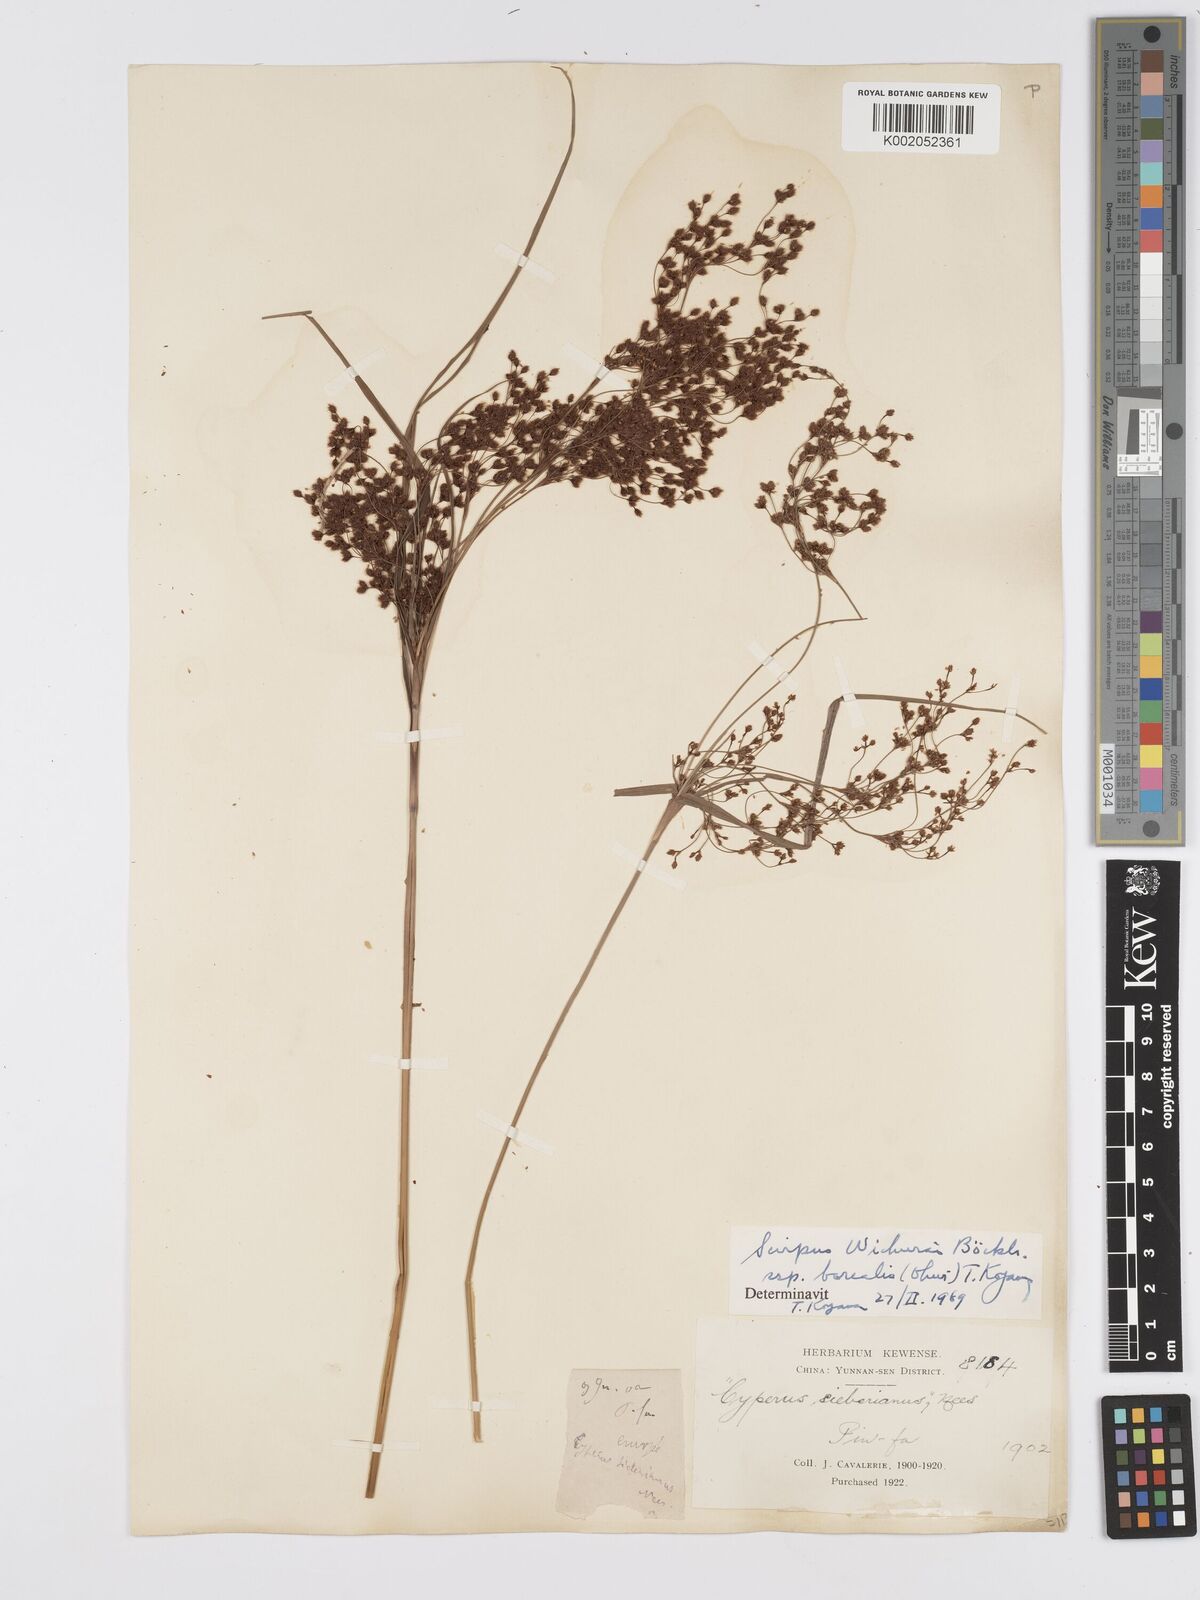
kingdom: Plantae
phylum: Tracheophyta
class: Liliopsida
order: Poales
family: Cyperaceae
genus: Scirpus
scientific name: Scirpus lineatus
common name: Drooping bulrush
